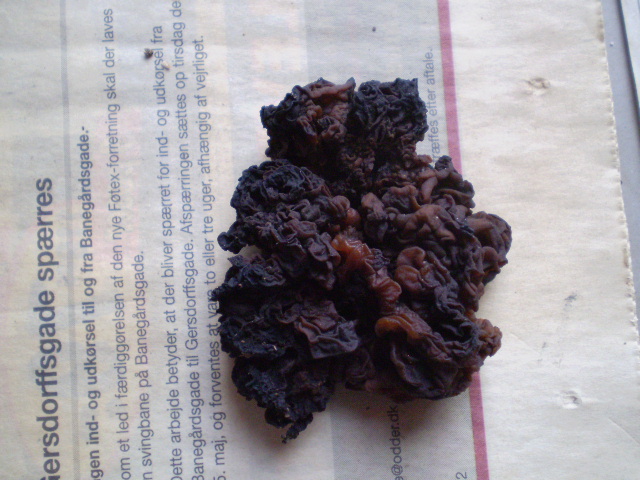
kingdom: Fungi
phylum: Basidiomycota
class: Tremellomycetes
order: Tremellales
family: Tremellaceae
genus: Phaeotremella
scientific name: Phaeotremella frondosa
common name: kæmpe-bævresvamp
